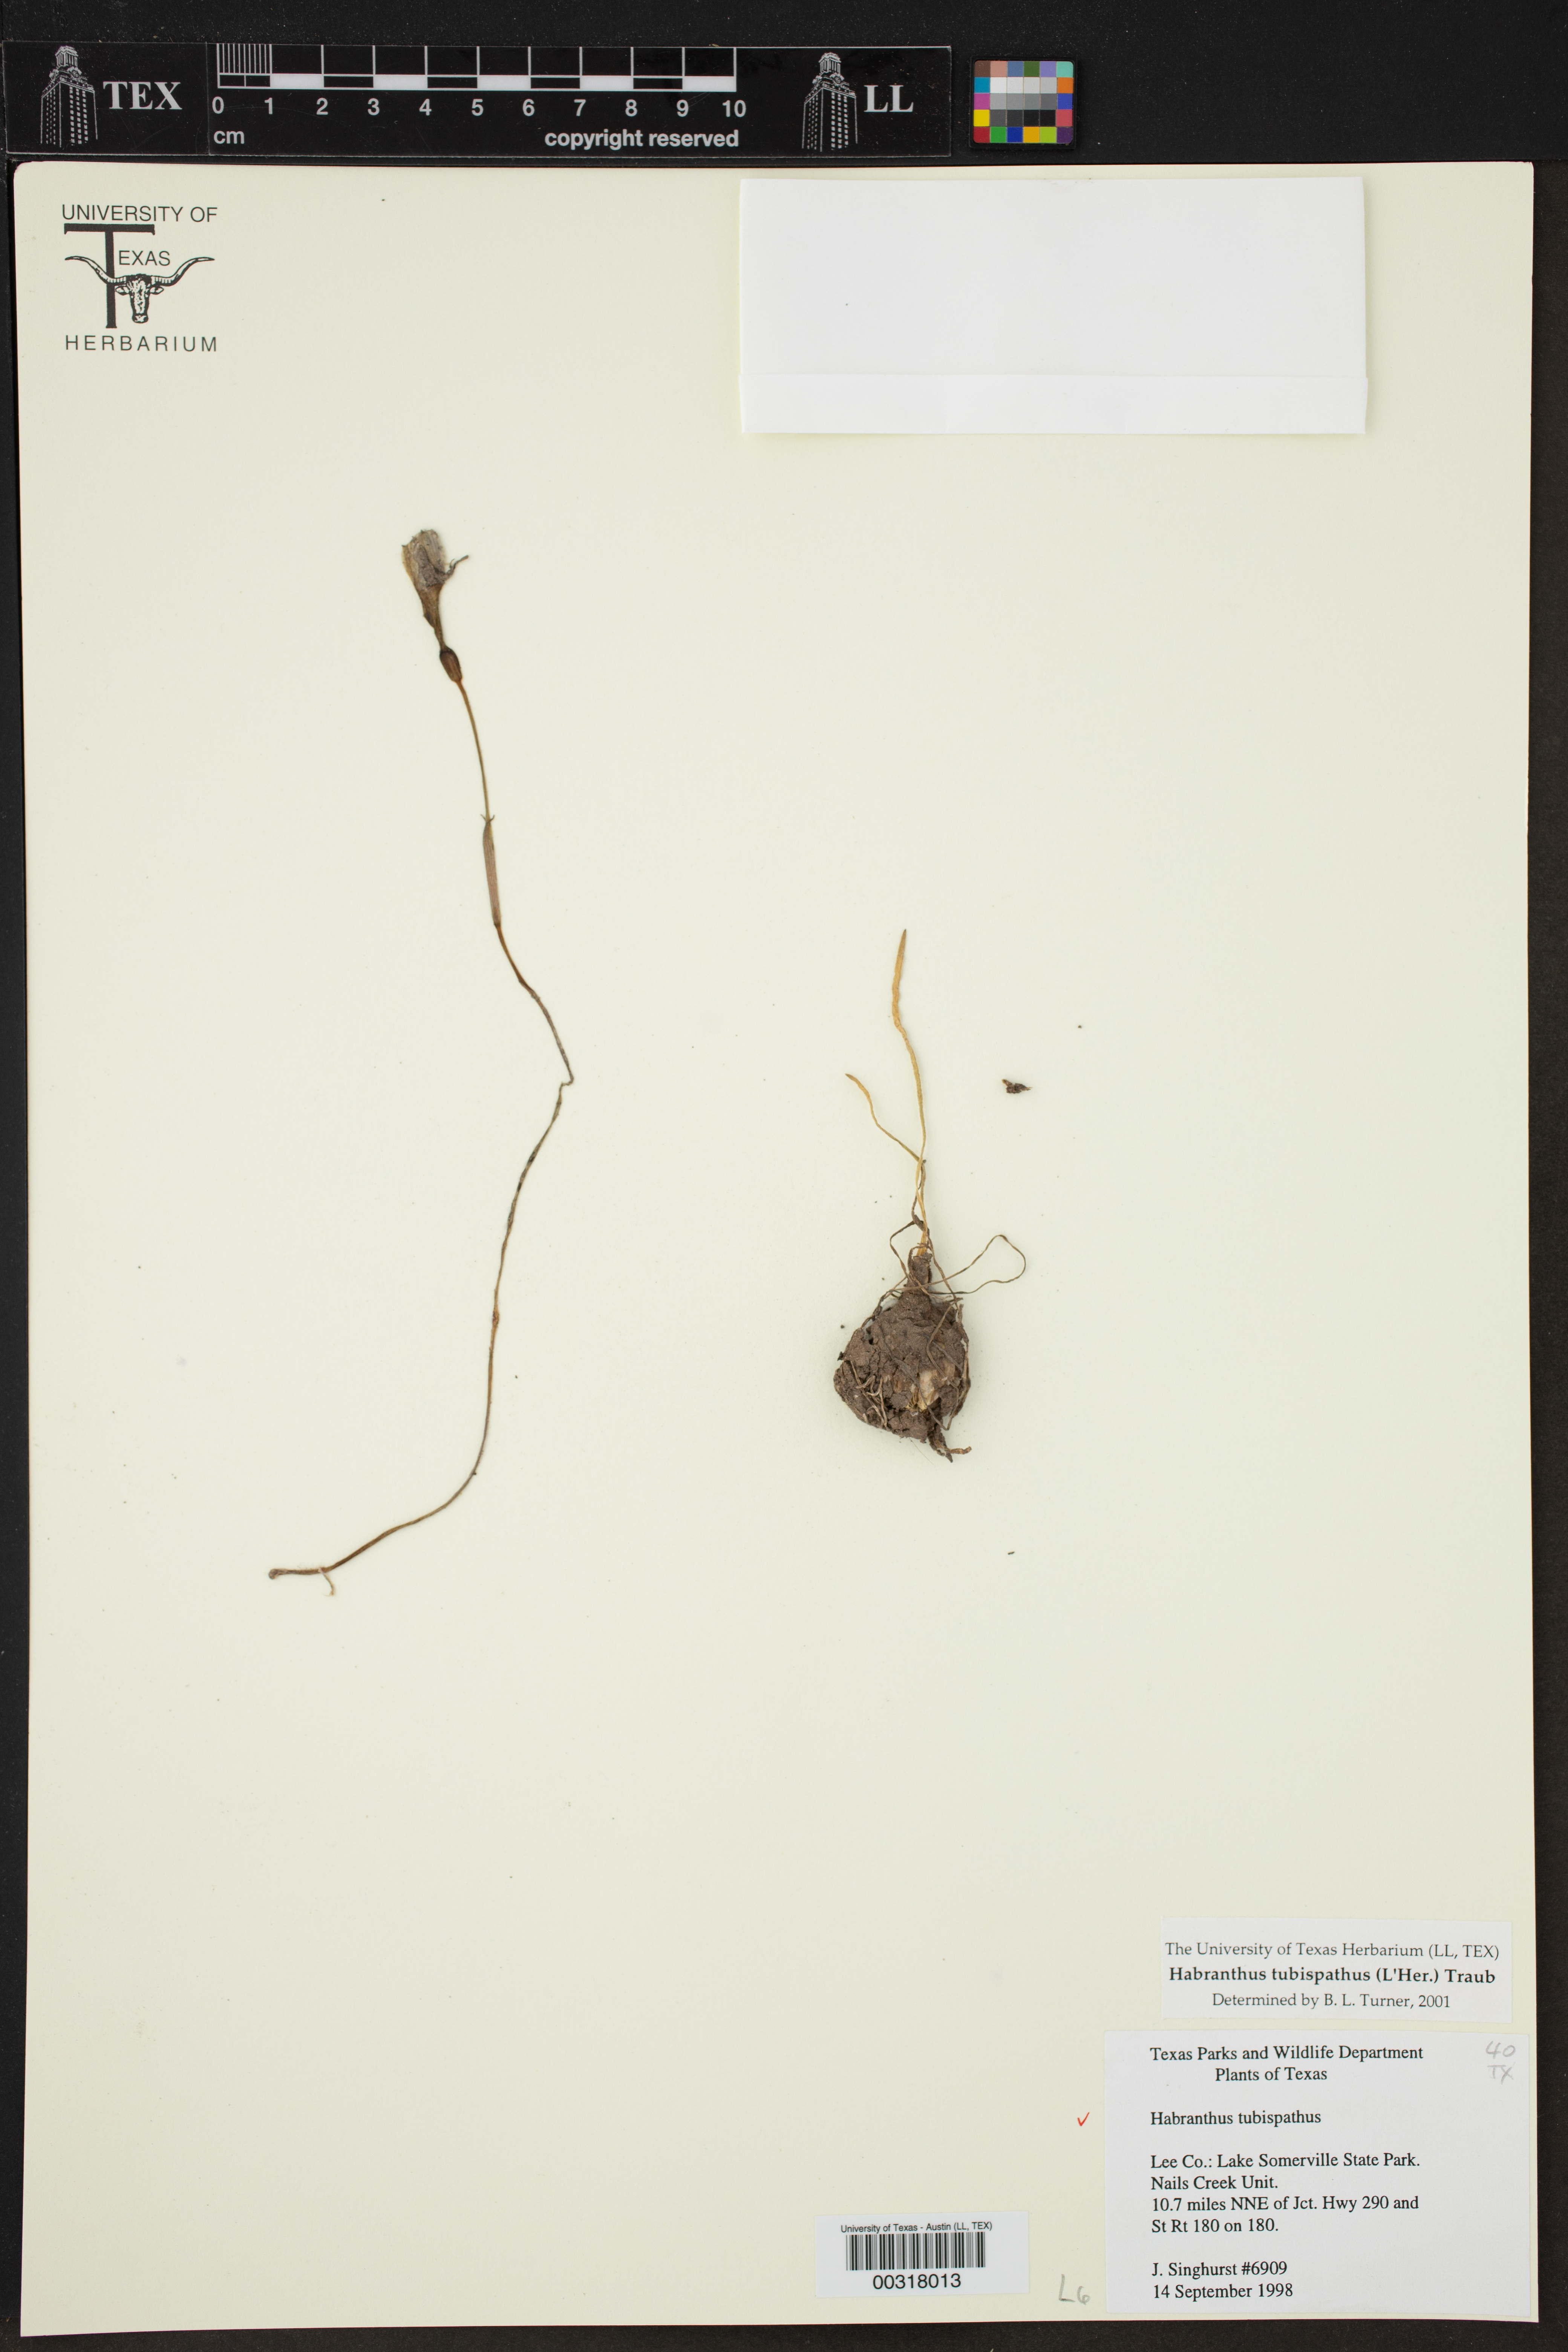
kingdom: Plantae
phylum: Tracheophyta
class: Liliopsida
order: Asparagales
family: Amaryllidaceae
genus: Zephyranthes
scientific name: Zephyranthes tubispatha
